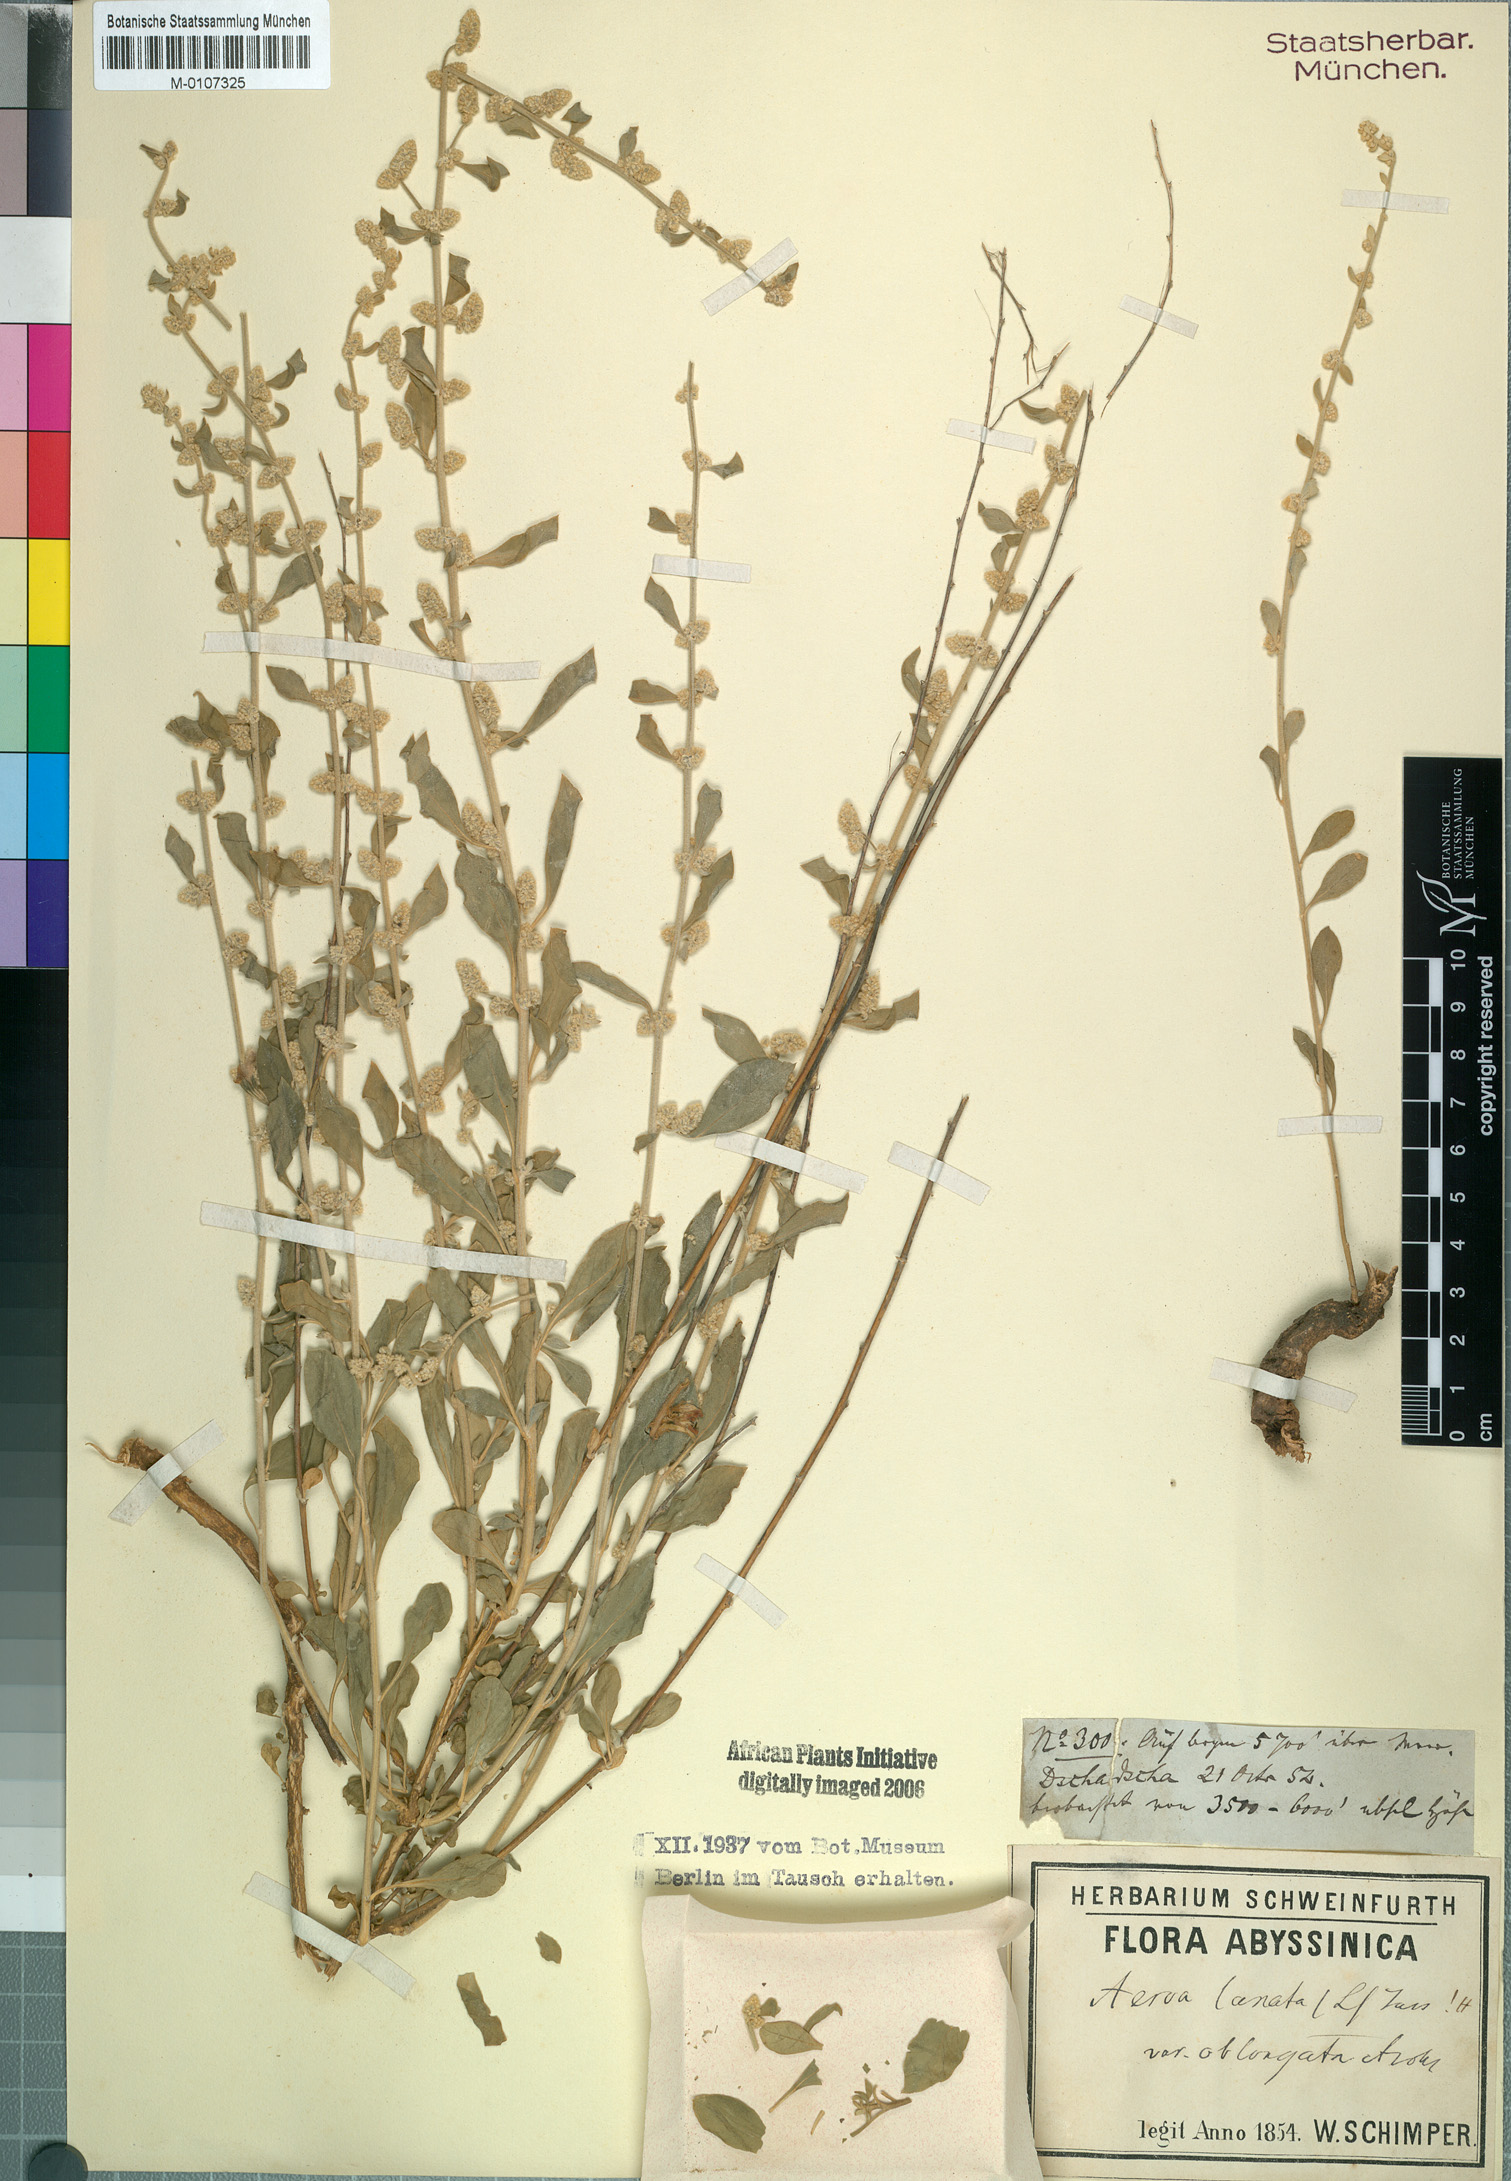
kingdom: Plantae
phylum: Tracheophyta
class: Magnoliopsida
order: Caryophyllales
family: Amaranthaceae
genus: Ouret
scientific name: Ouret lanata
